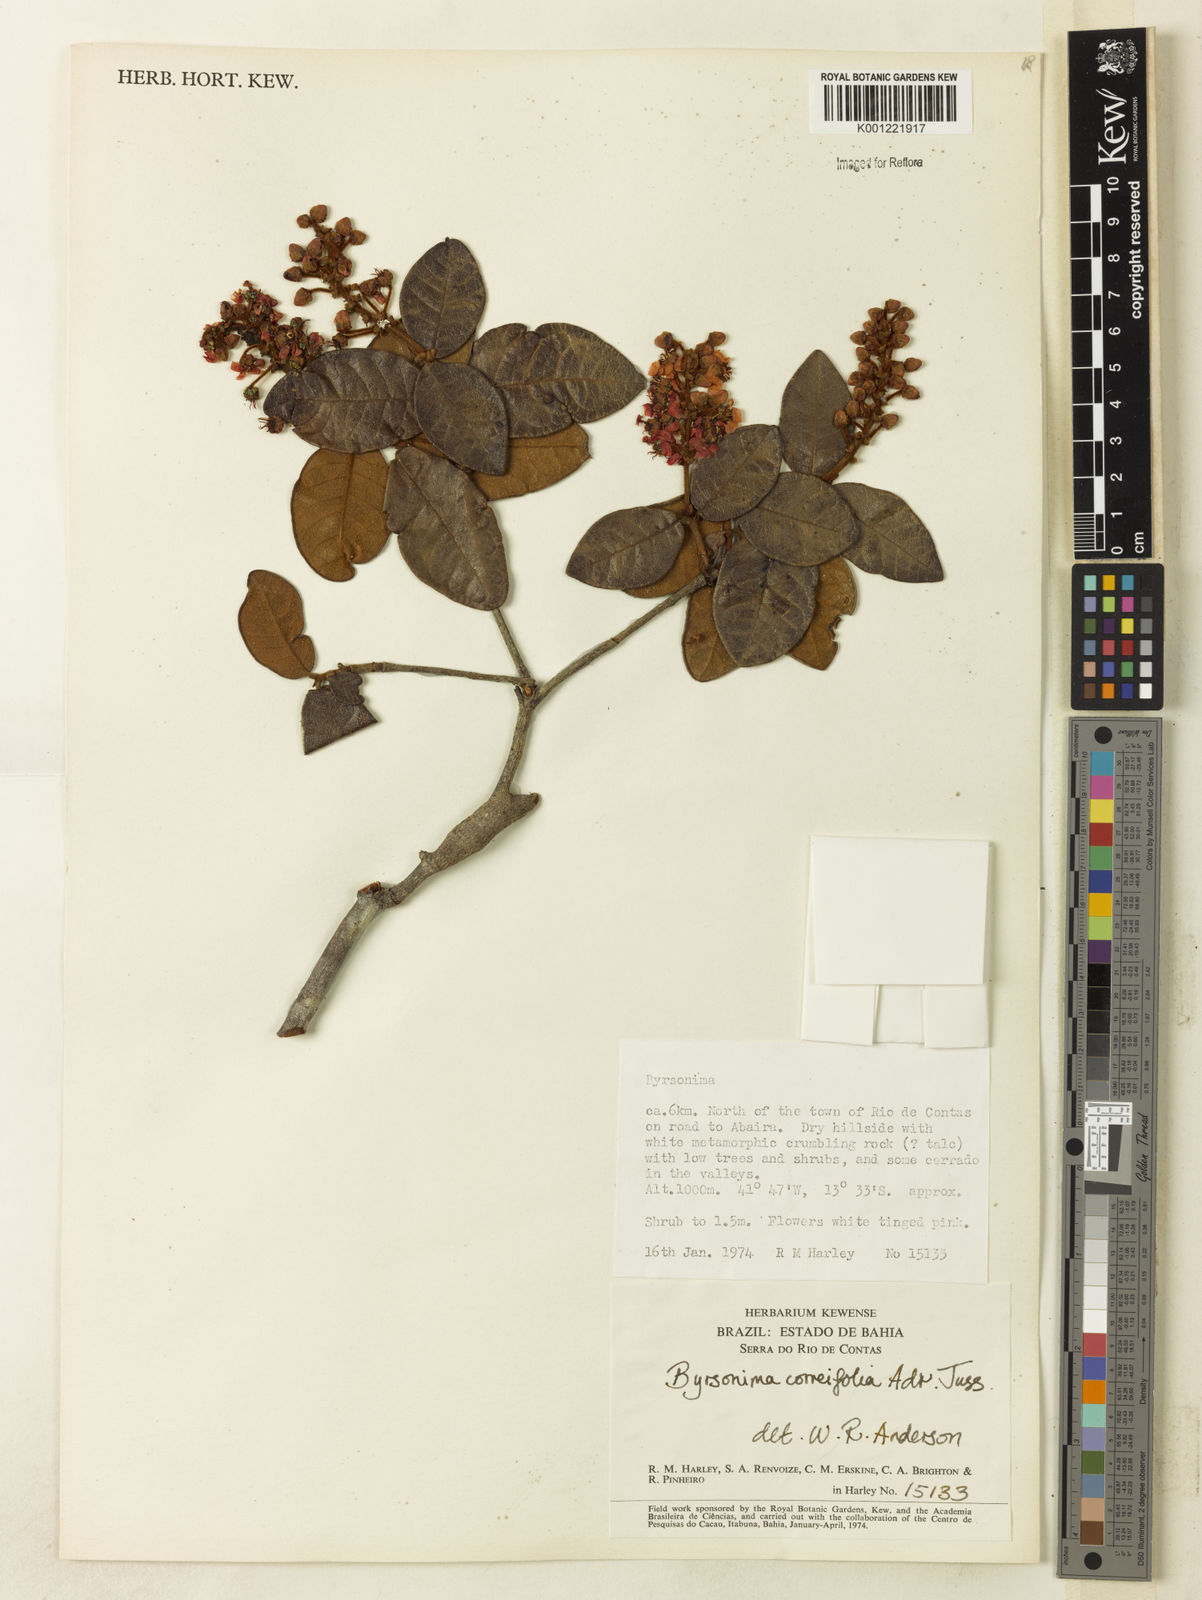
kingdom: Plantae
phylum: Tracheophyta
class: Magnoliopsida
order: Malpighiales
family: Malpighiaceae
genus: Byrsonima
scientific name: Byrsonima correifolia
